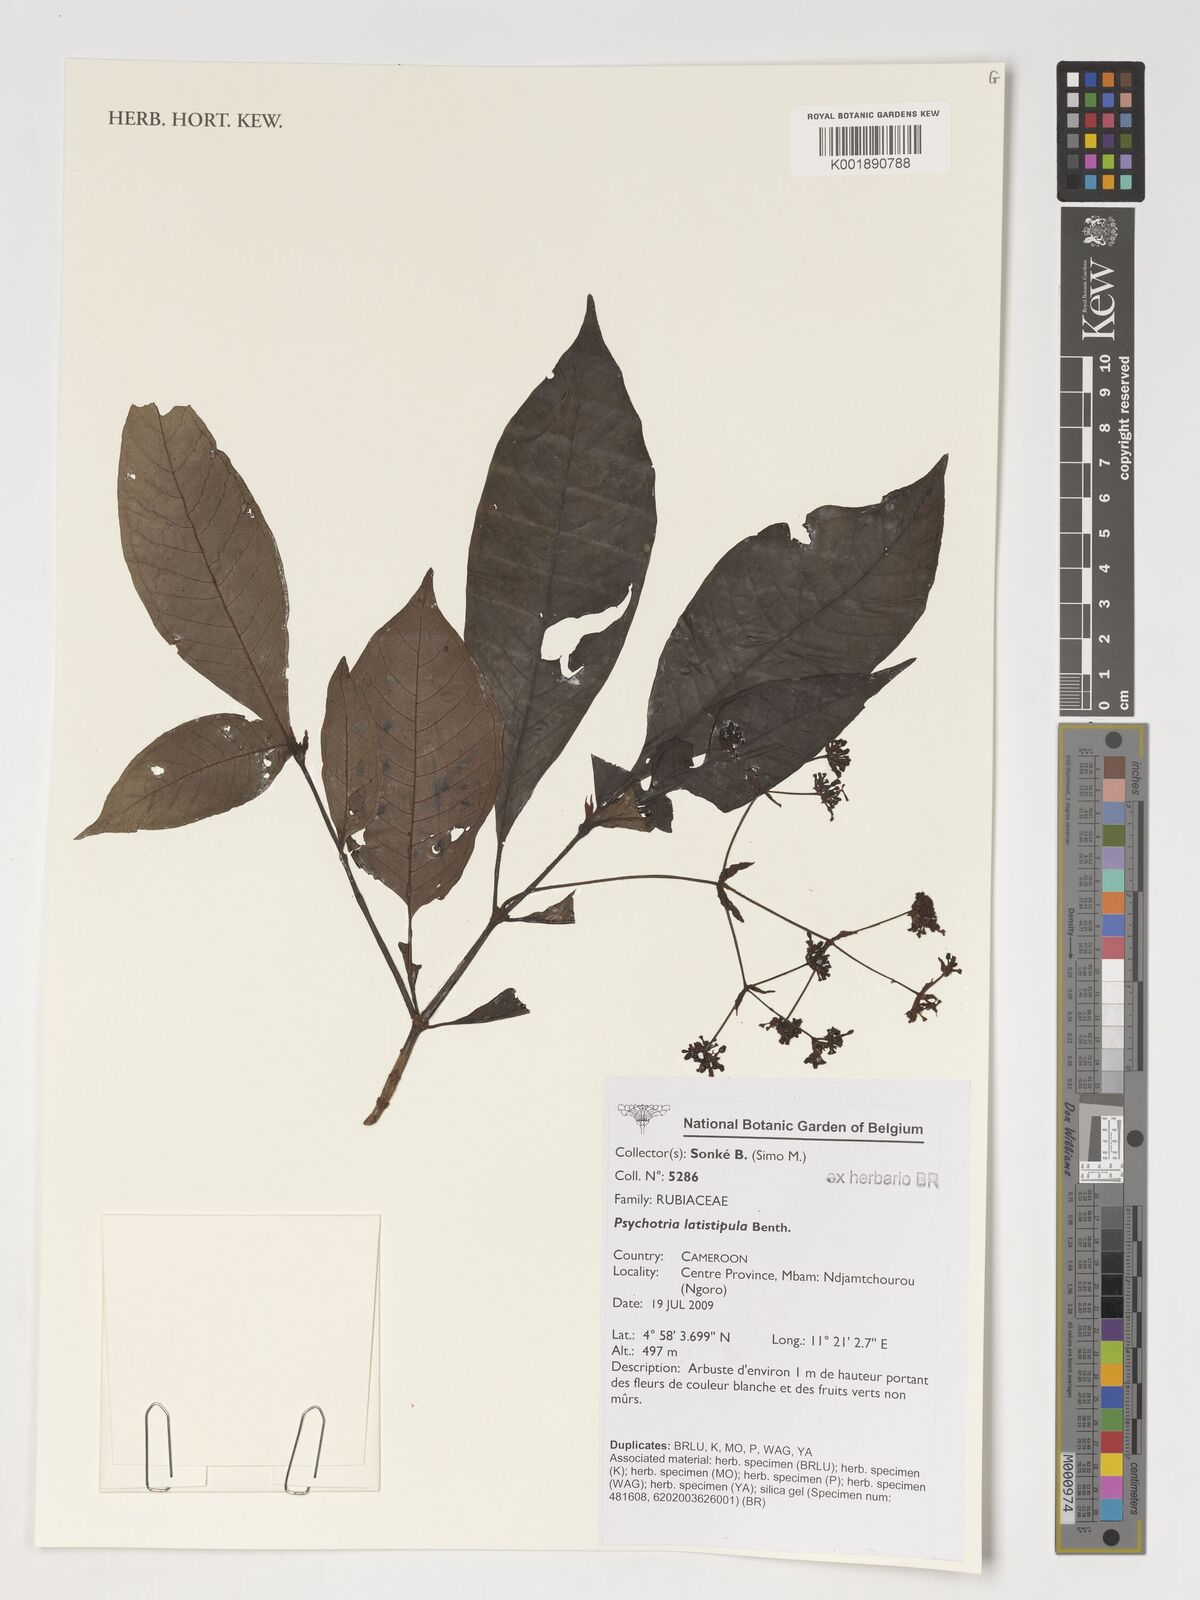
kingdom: Plantae
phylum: Tracheophyta
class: Magnoliopsida
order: Gentianales
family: Rubiaceae
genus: Psychotria
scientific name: Psychotria latistipula
